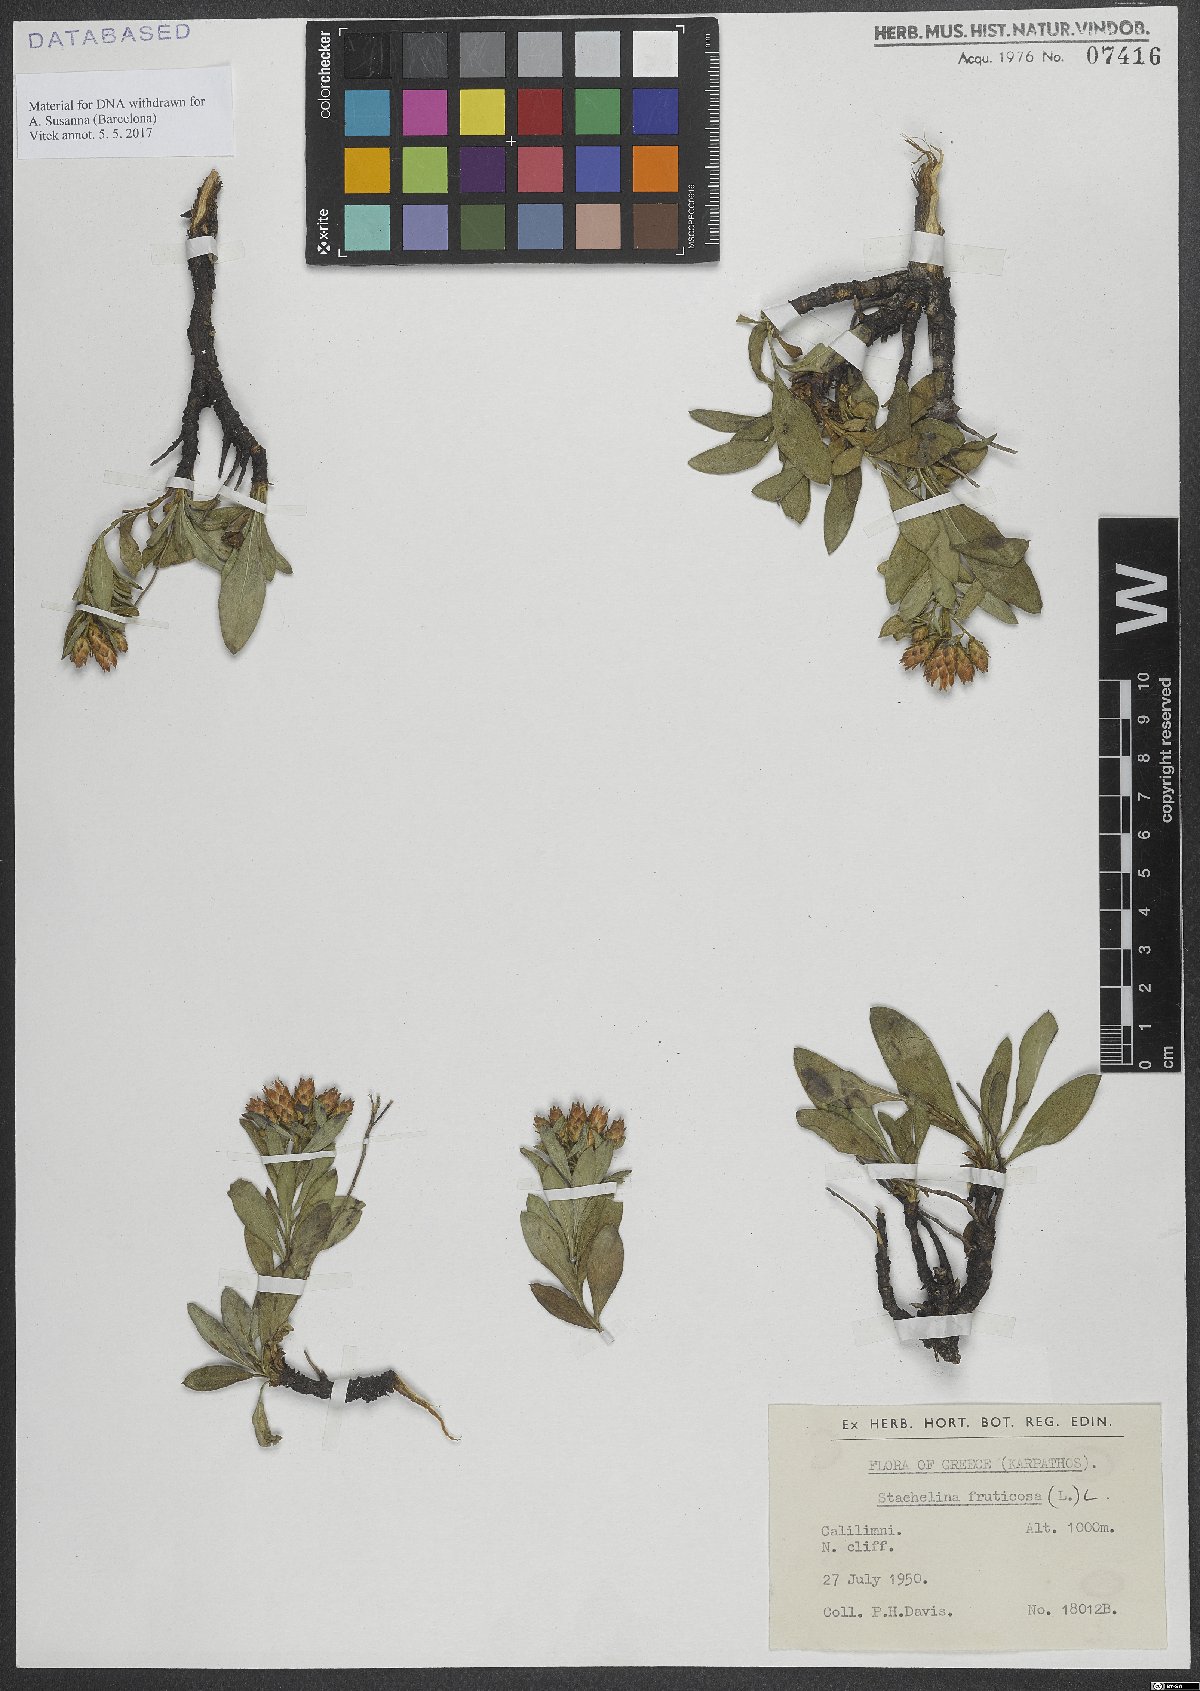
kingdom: Plantae
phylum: Tracheophyta
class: Magnoliopsida
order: Asterales
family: Asteraceae
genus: Hirtellina
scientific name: Hirtellina fruticosa
